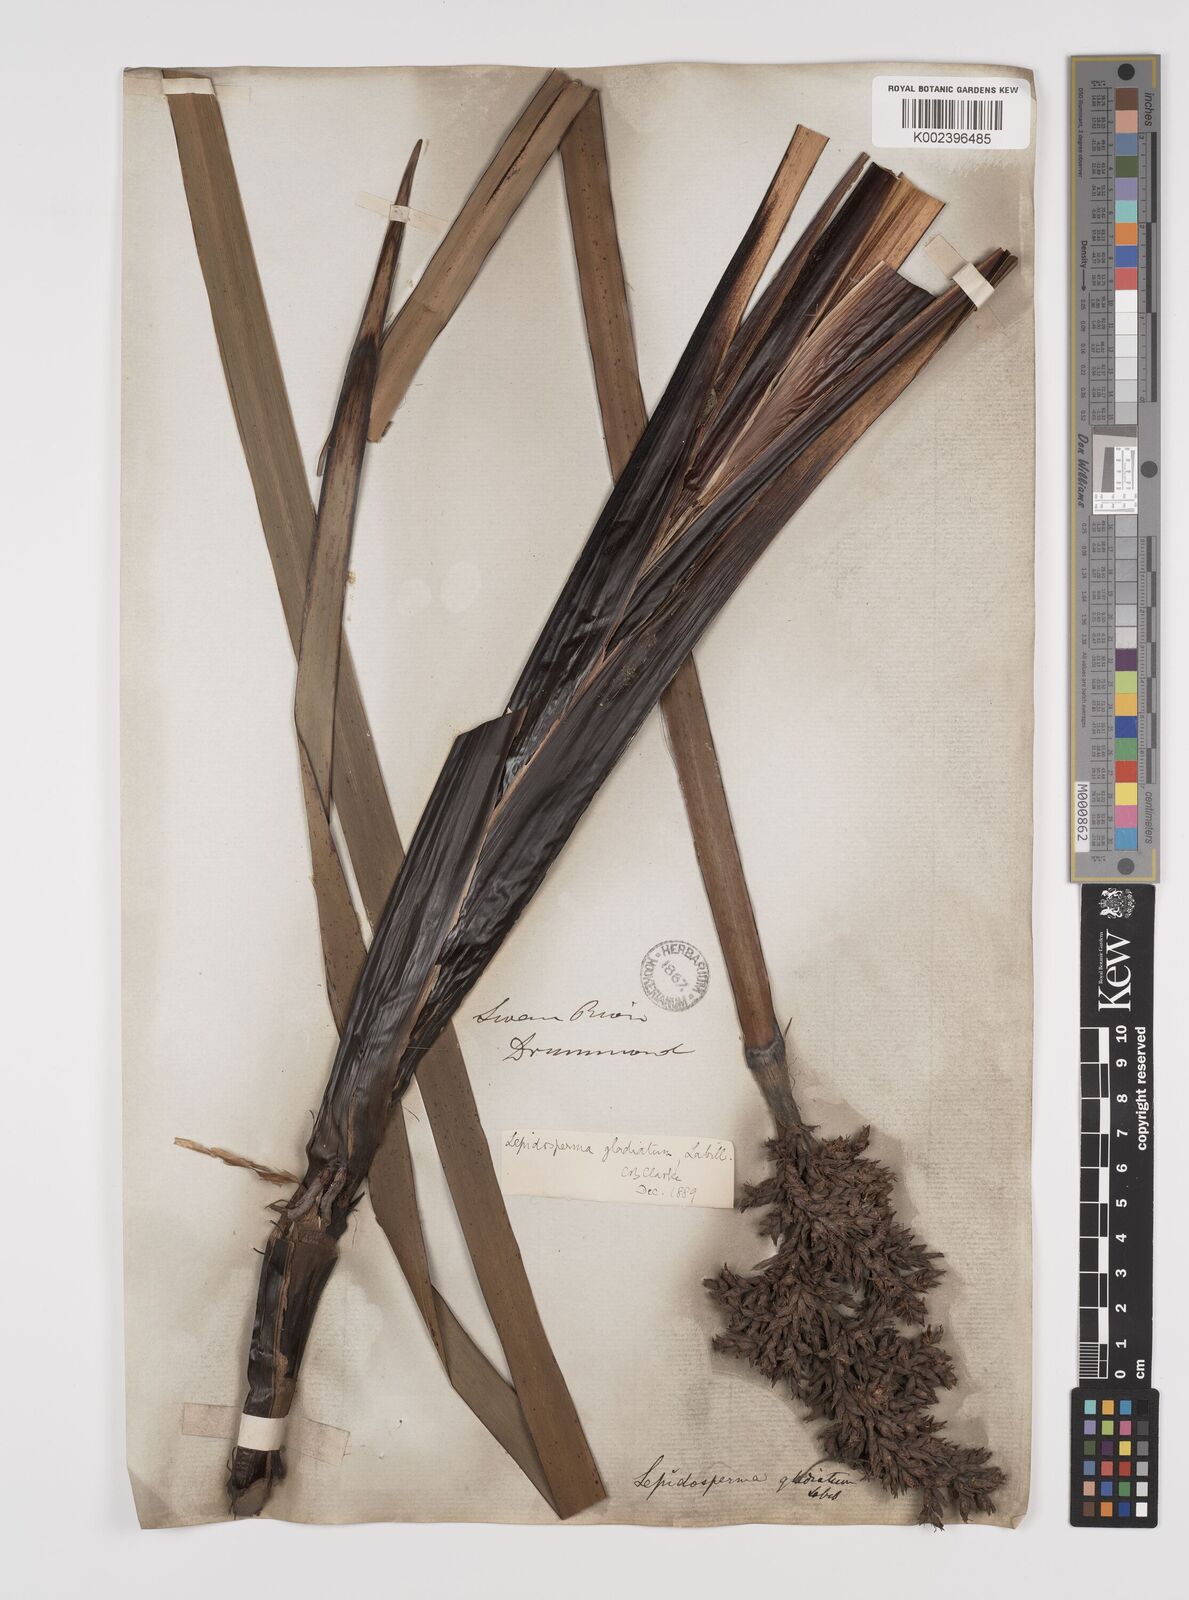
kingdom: Plantae
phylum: Tracheophyta
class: Liliopsida
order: Poales
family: Cyperaceae
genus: Lepidosperma
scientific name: Lepidosperma gladiatum
